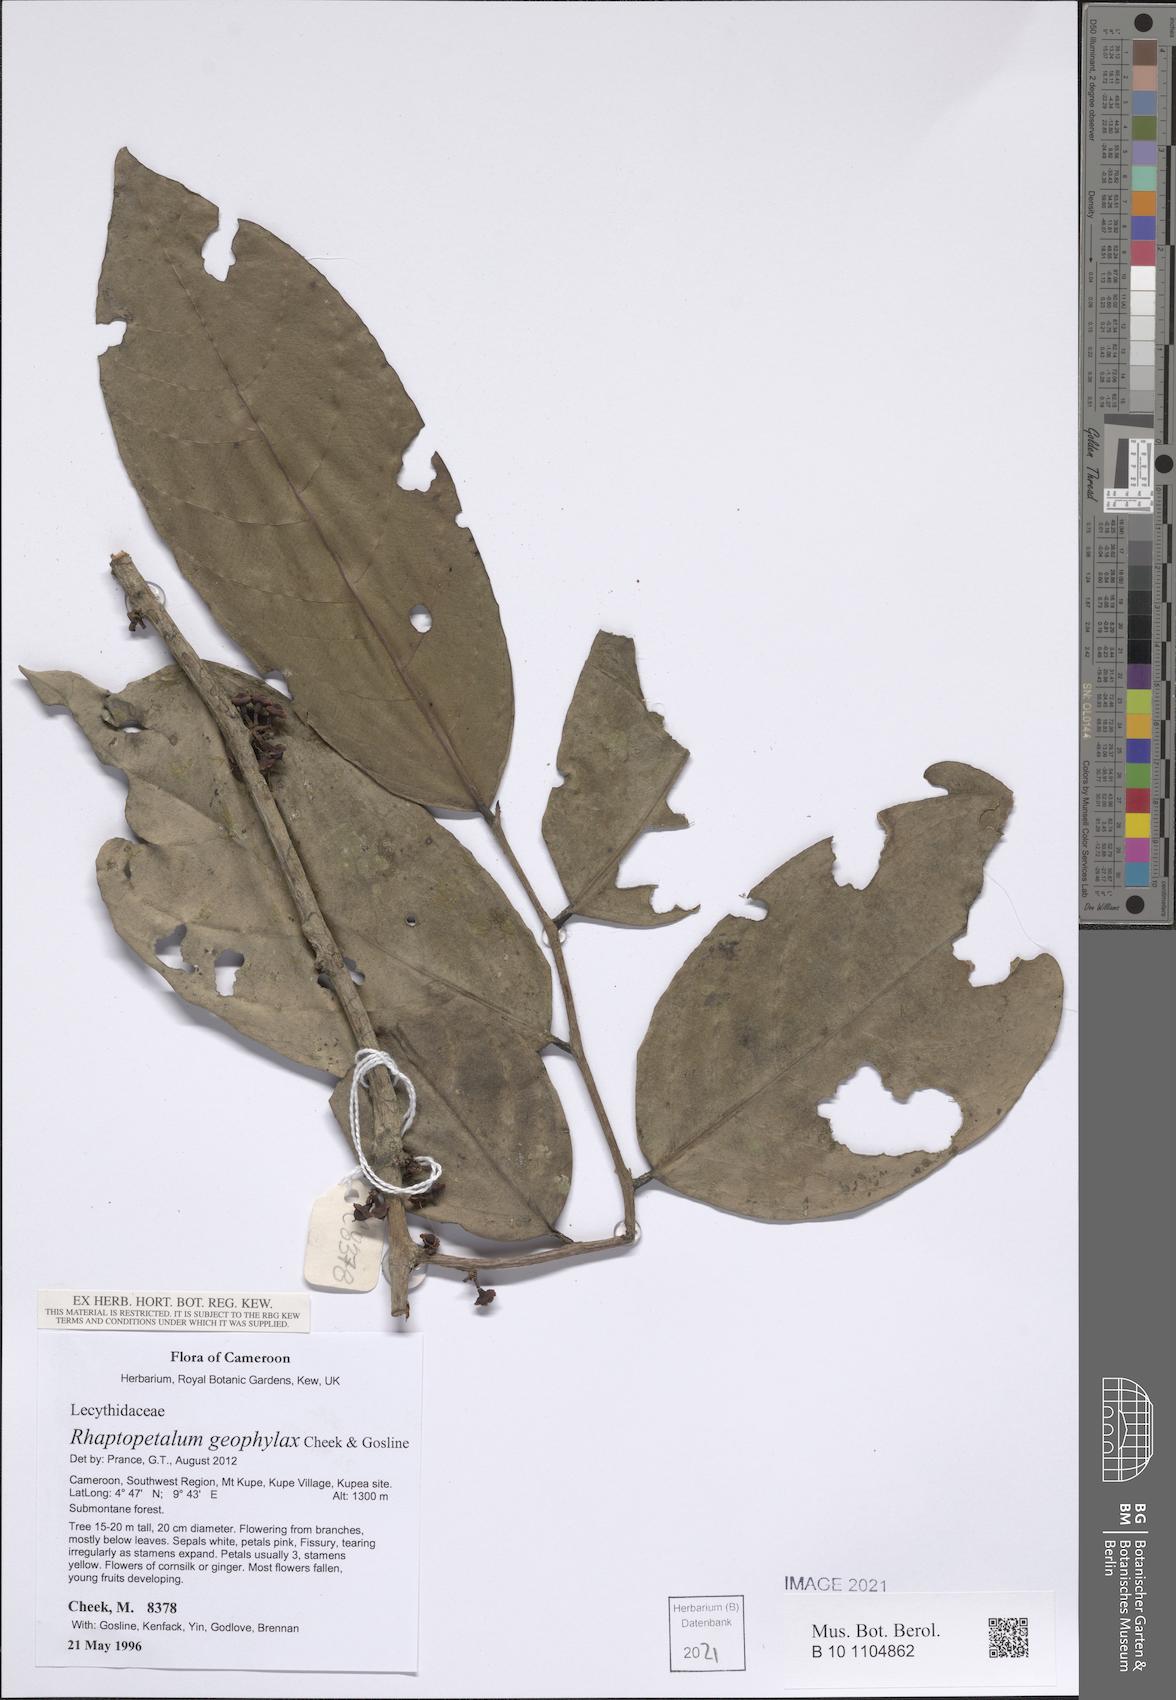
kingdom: Plantae
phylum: Tracheophyta
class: Magnoliopsida
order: Ericales
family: Lecythidaceae
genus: Rhaptopetalum
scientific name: Rhaptopetalum geophylax
